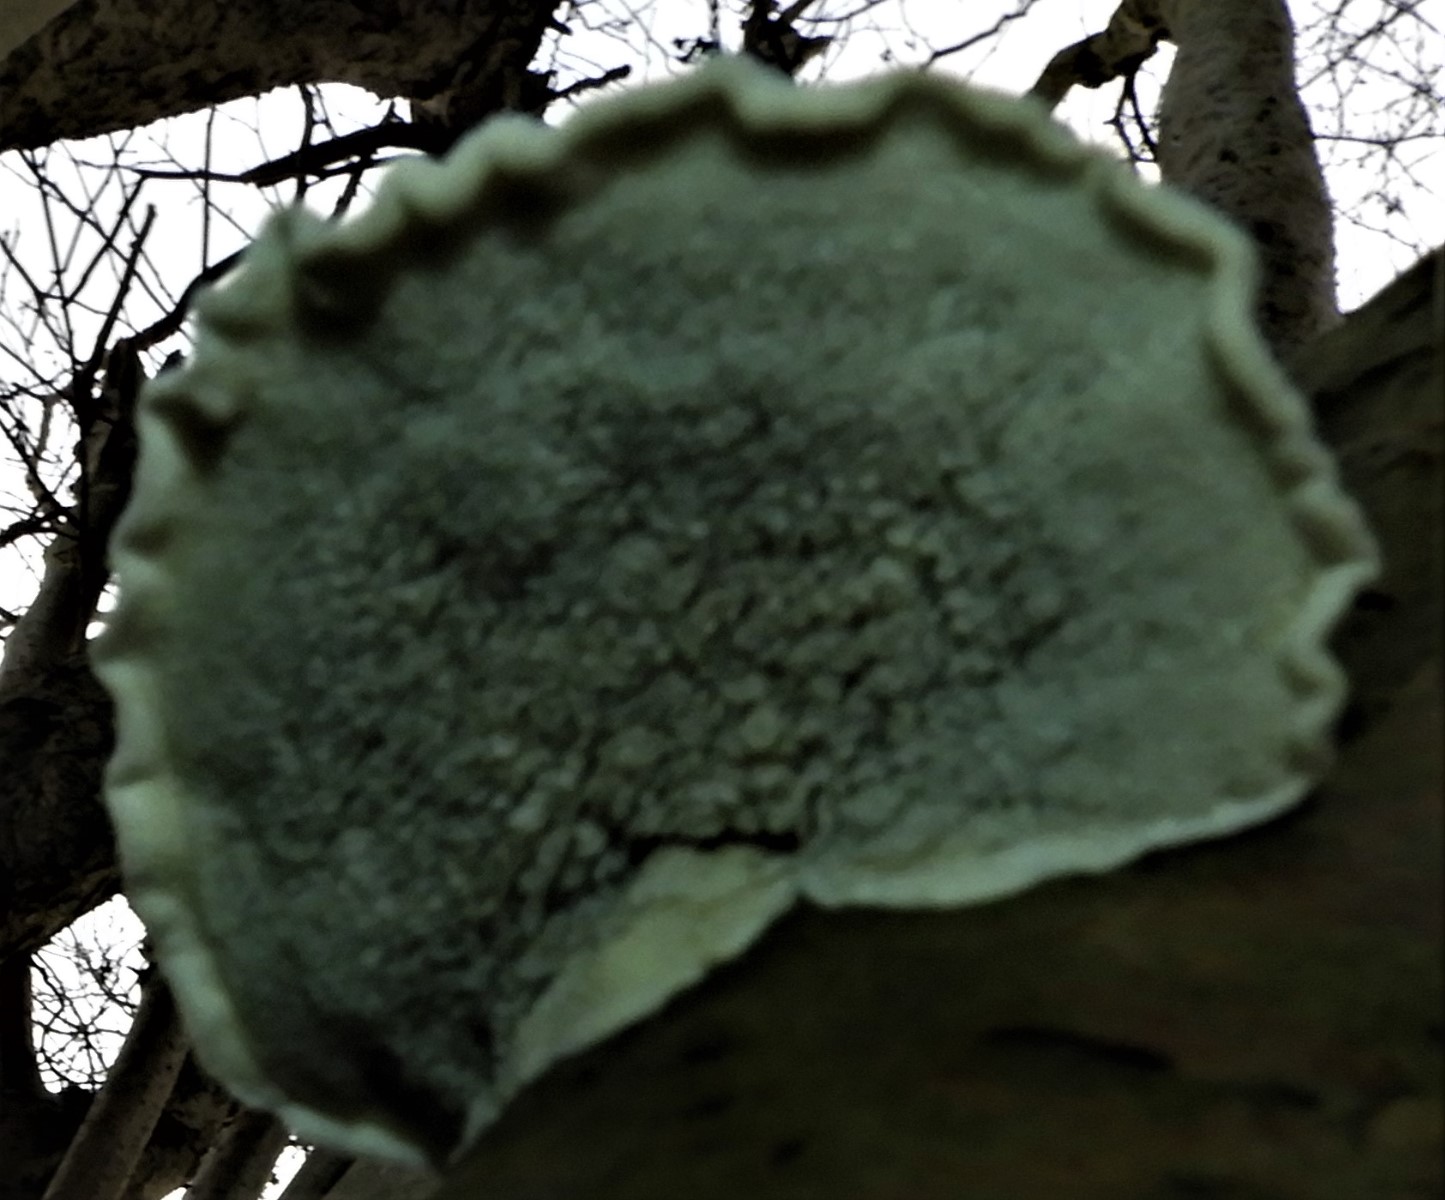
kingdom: Fungi
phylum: Basidiomycota
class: Agaricomycetes
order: Polyporales
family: Polyporaceae
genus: Cyanosporus
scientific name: Cyanosporus alni
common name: blegblå kødporesvamp
